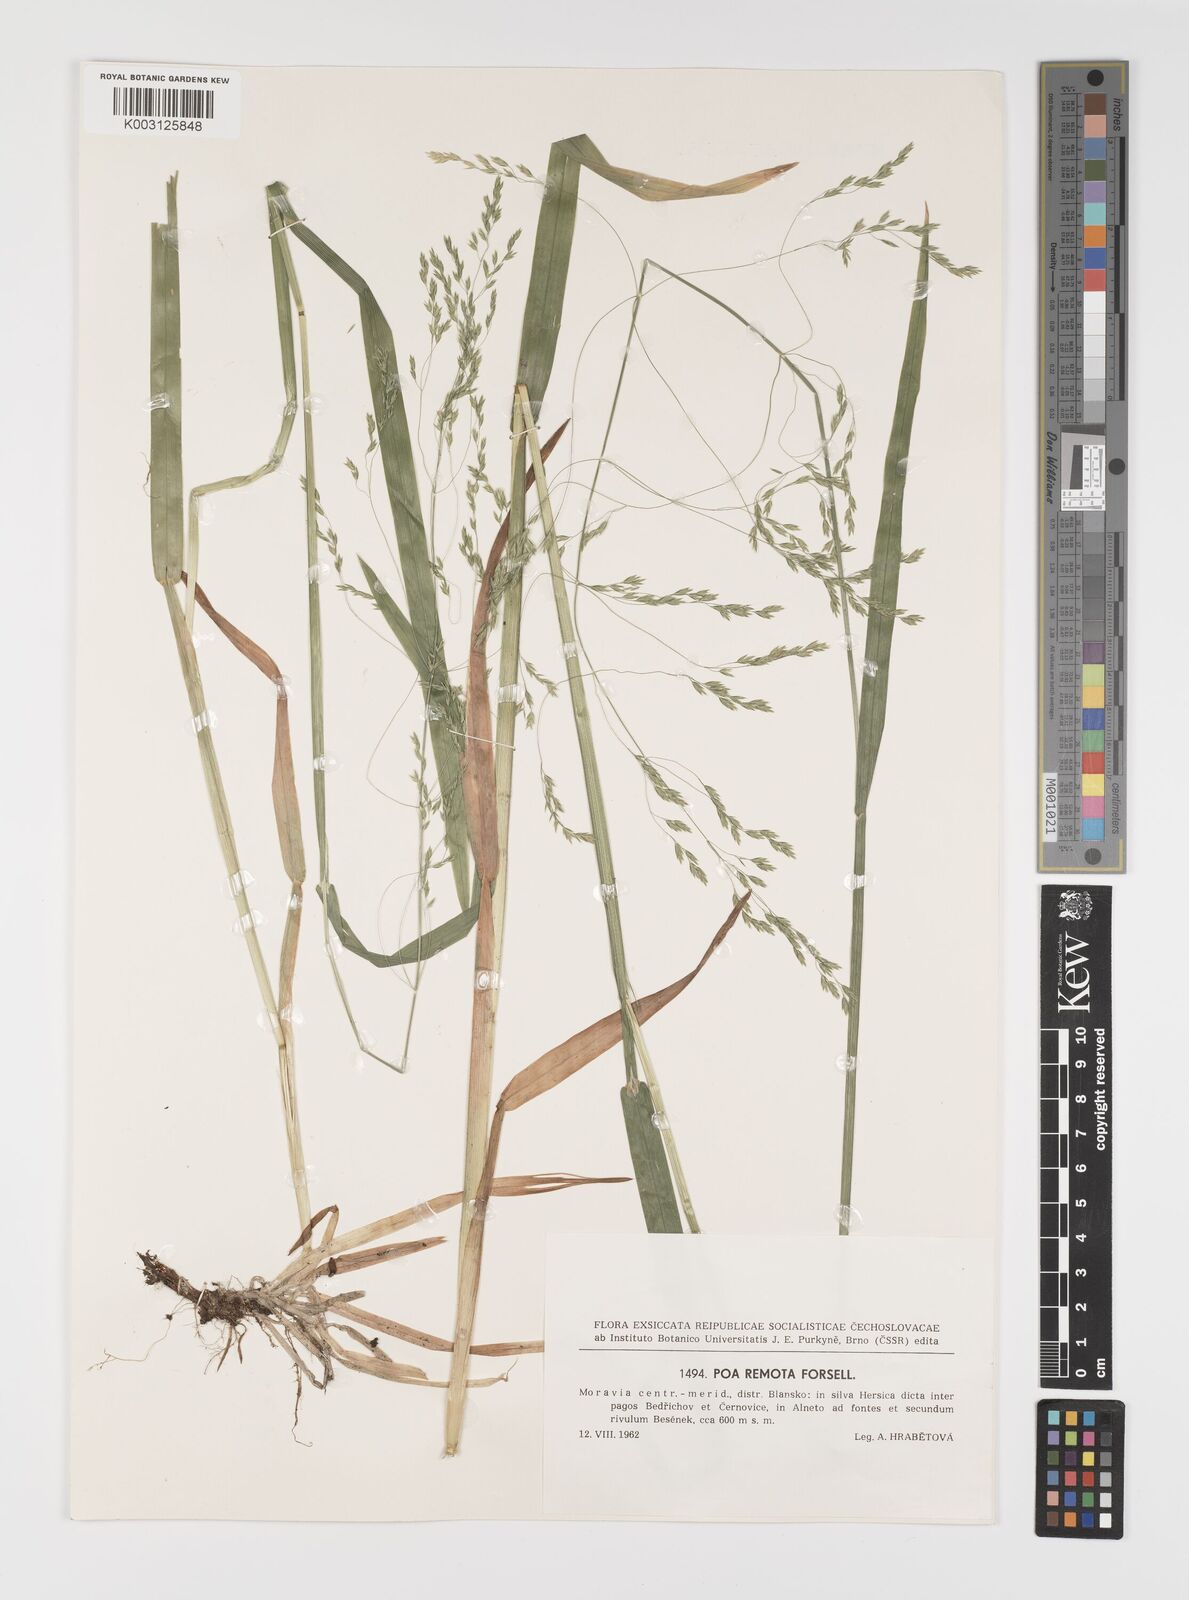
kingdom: Plantae
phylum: Tracheophyta
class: Liliopsida
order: Poales
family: Poaceae
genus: Poa
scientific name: Poa remota
